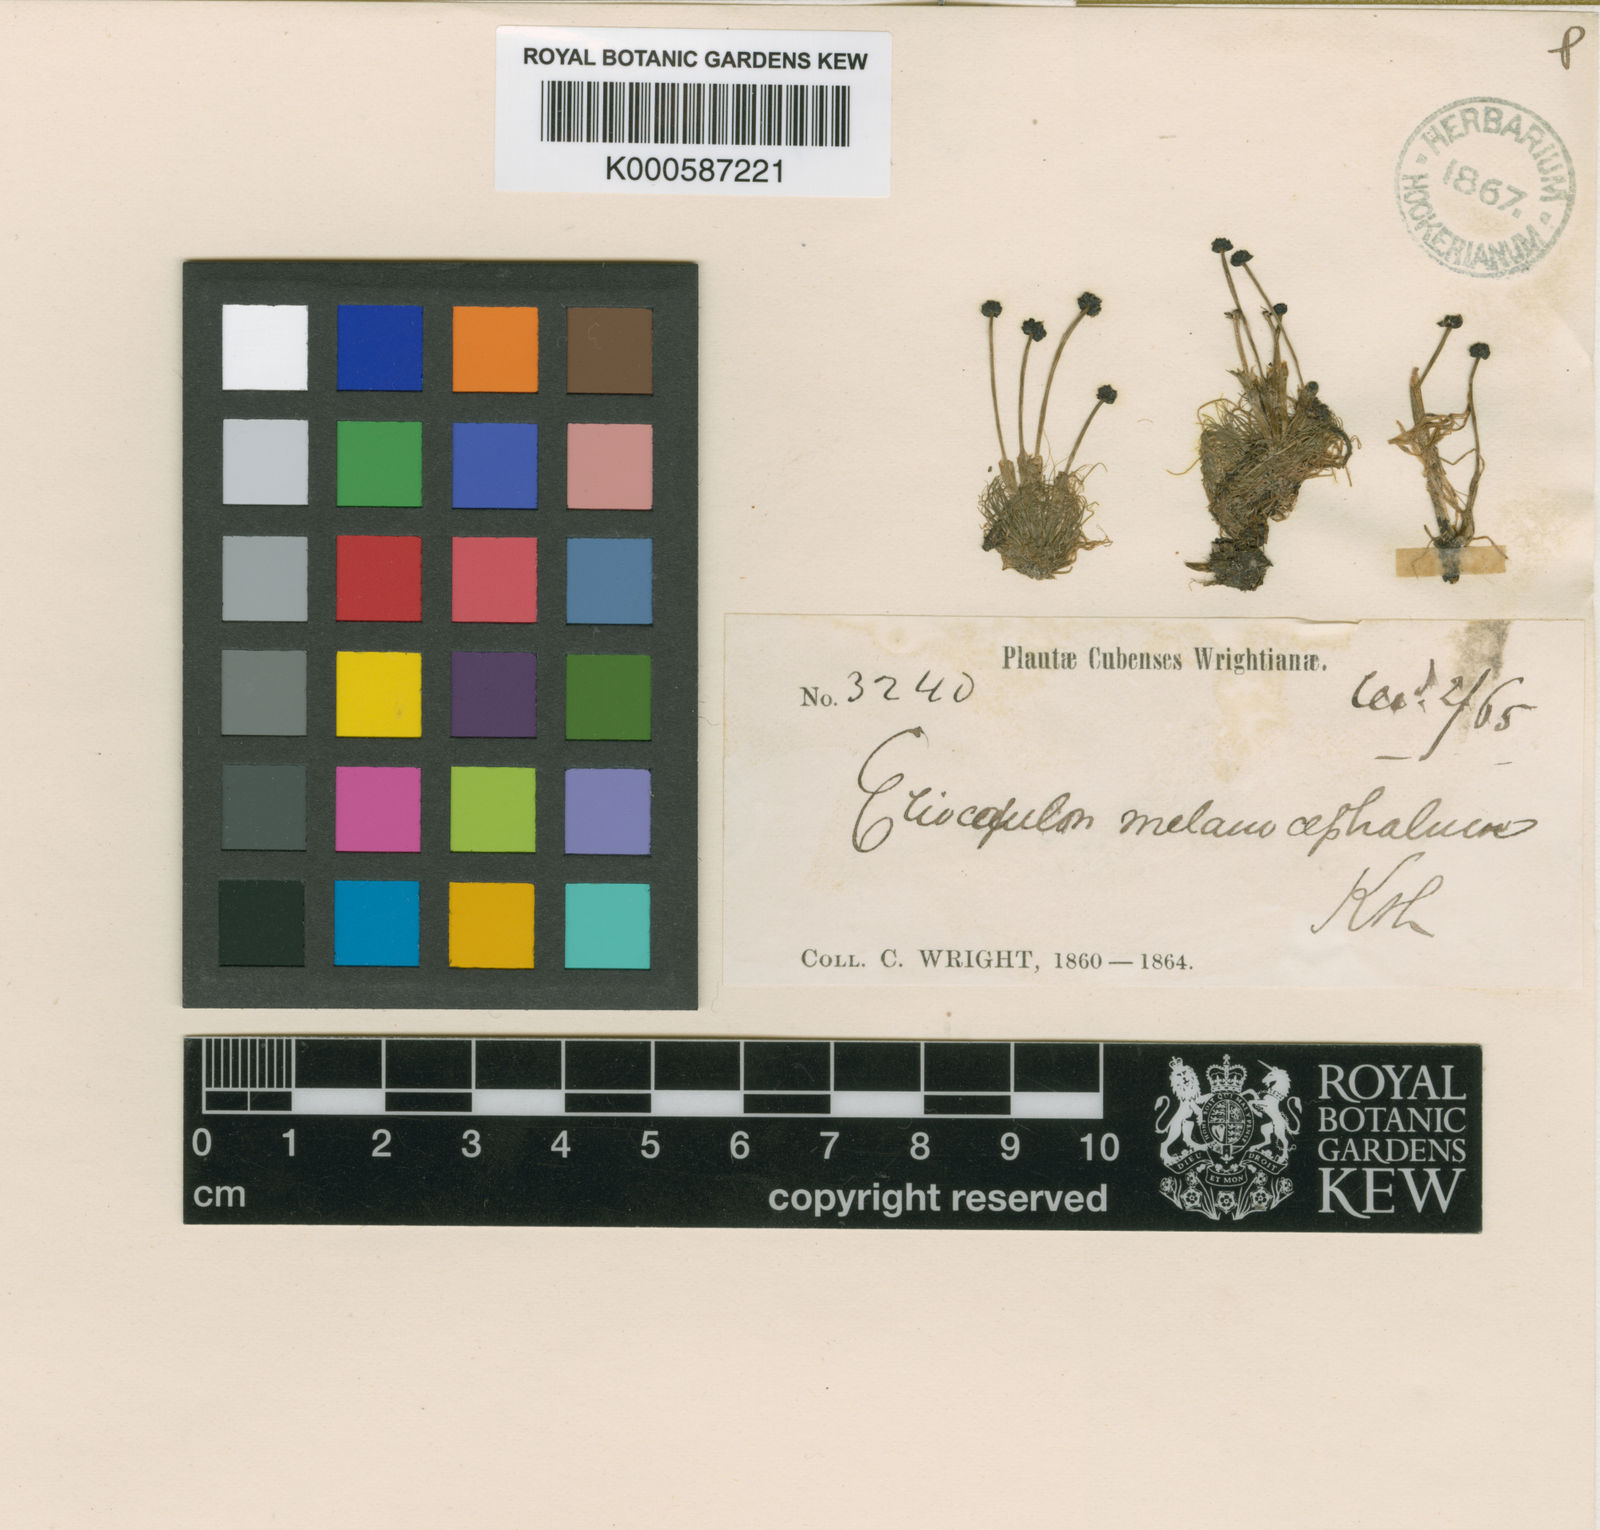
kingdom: Plantae
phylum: Tracheophyta
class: Liliopsida
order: Poales
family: Eriocaulaceae
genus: Eriocaulon
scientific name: Eriocaulon setaceum
